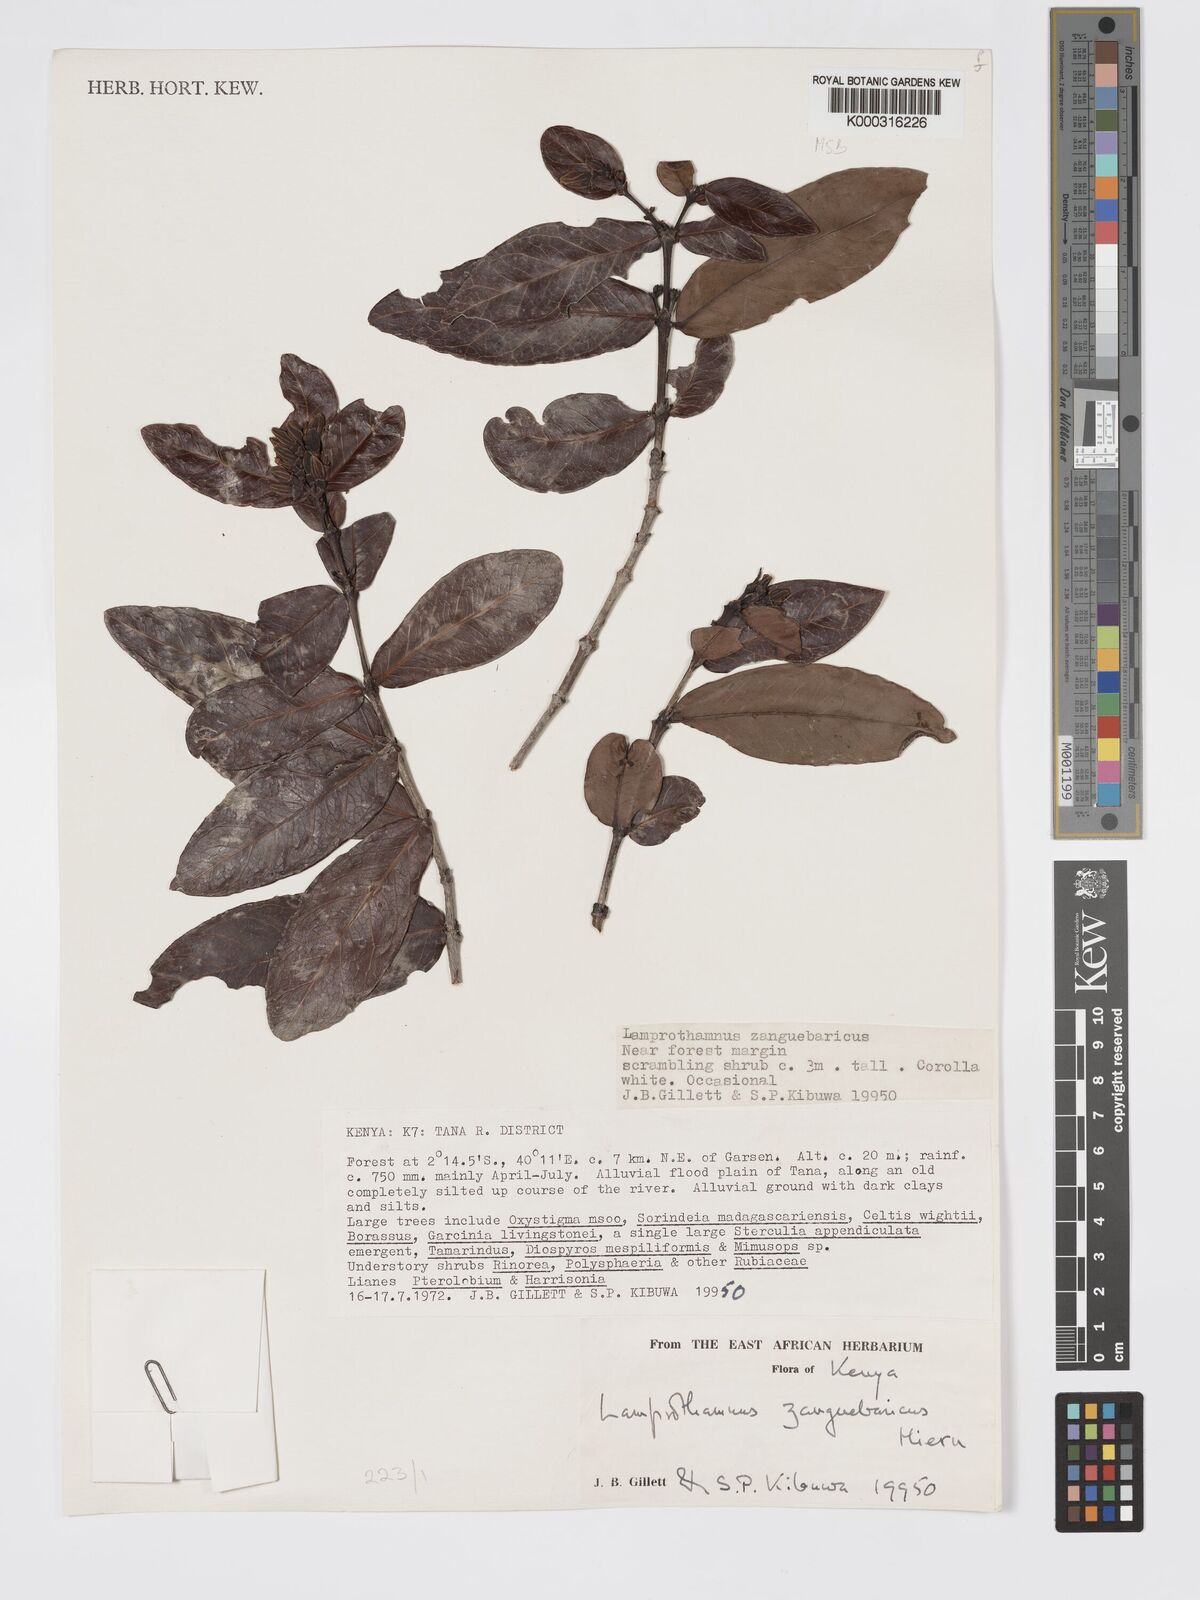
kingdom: Plantae
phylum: Tracheophyta
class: Magnoliopsida
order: Gentianales
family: Rubiaceae
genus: Lamprothamnus
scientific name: Lamprothamnus zanguebaricus
